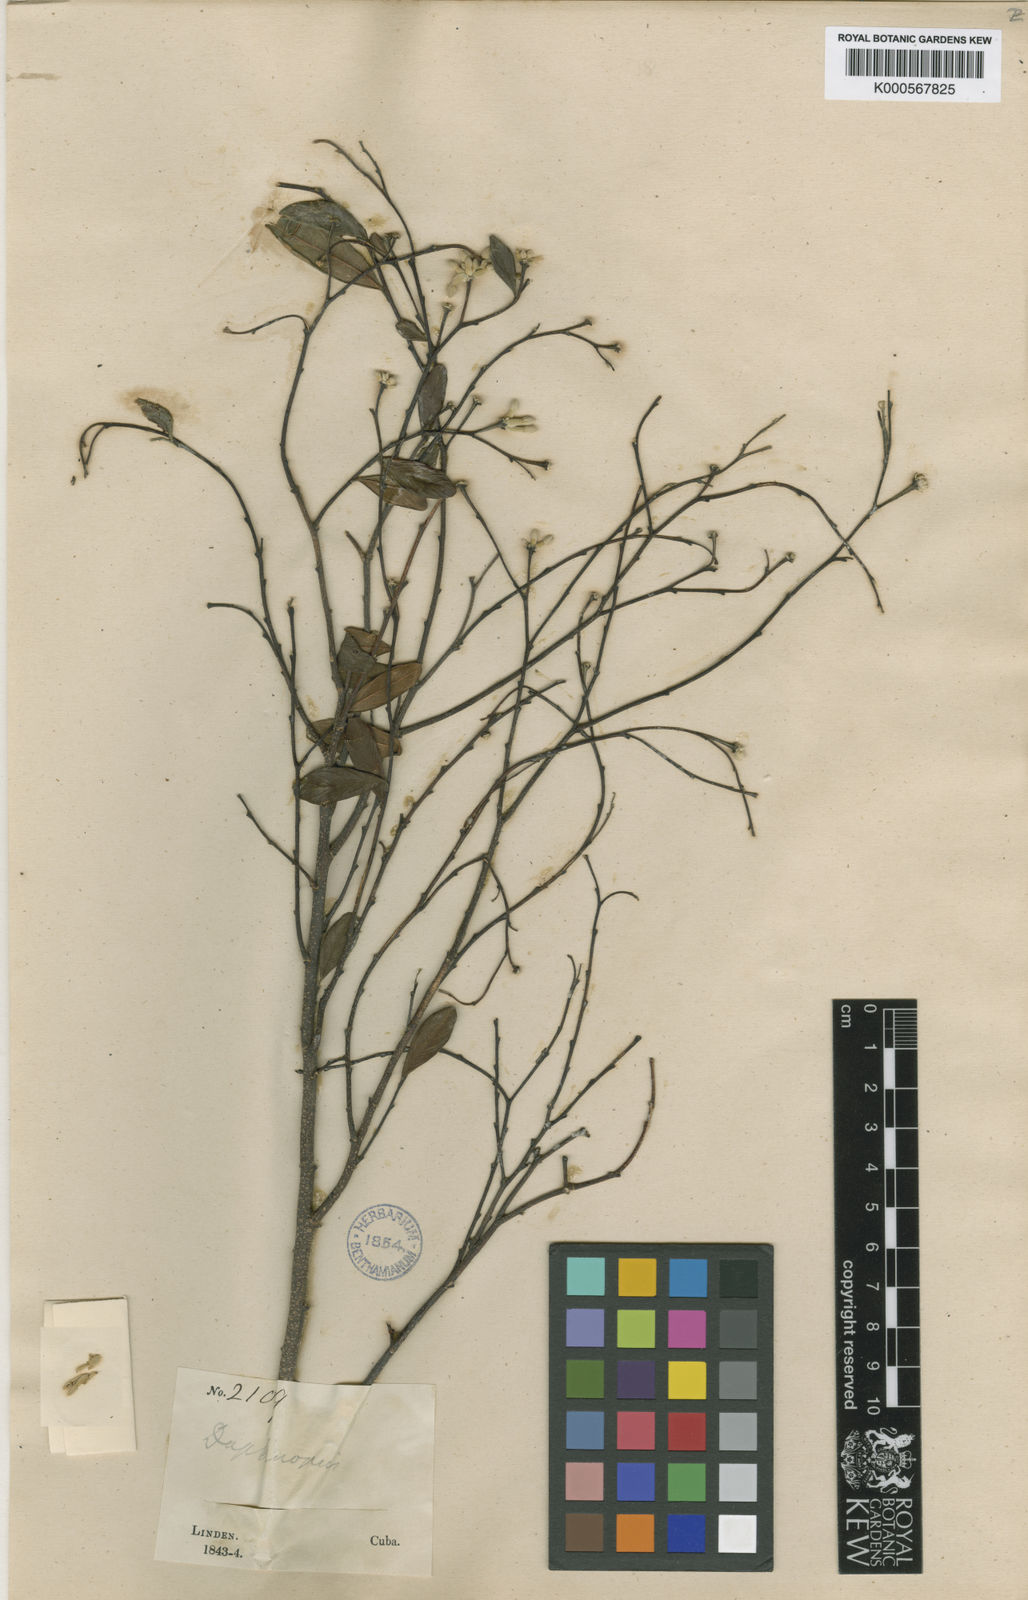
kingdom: Plantae
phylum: Tracheophyta
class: Magnoliopsida
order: Malvales
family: Thymelaeaceae
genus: Linodendron
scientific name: Linodendron
